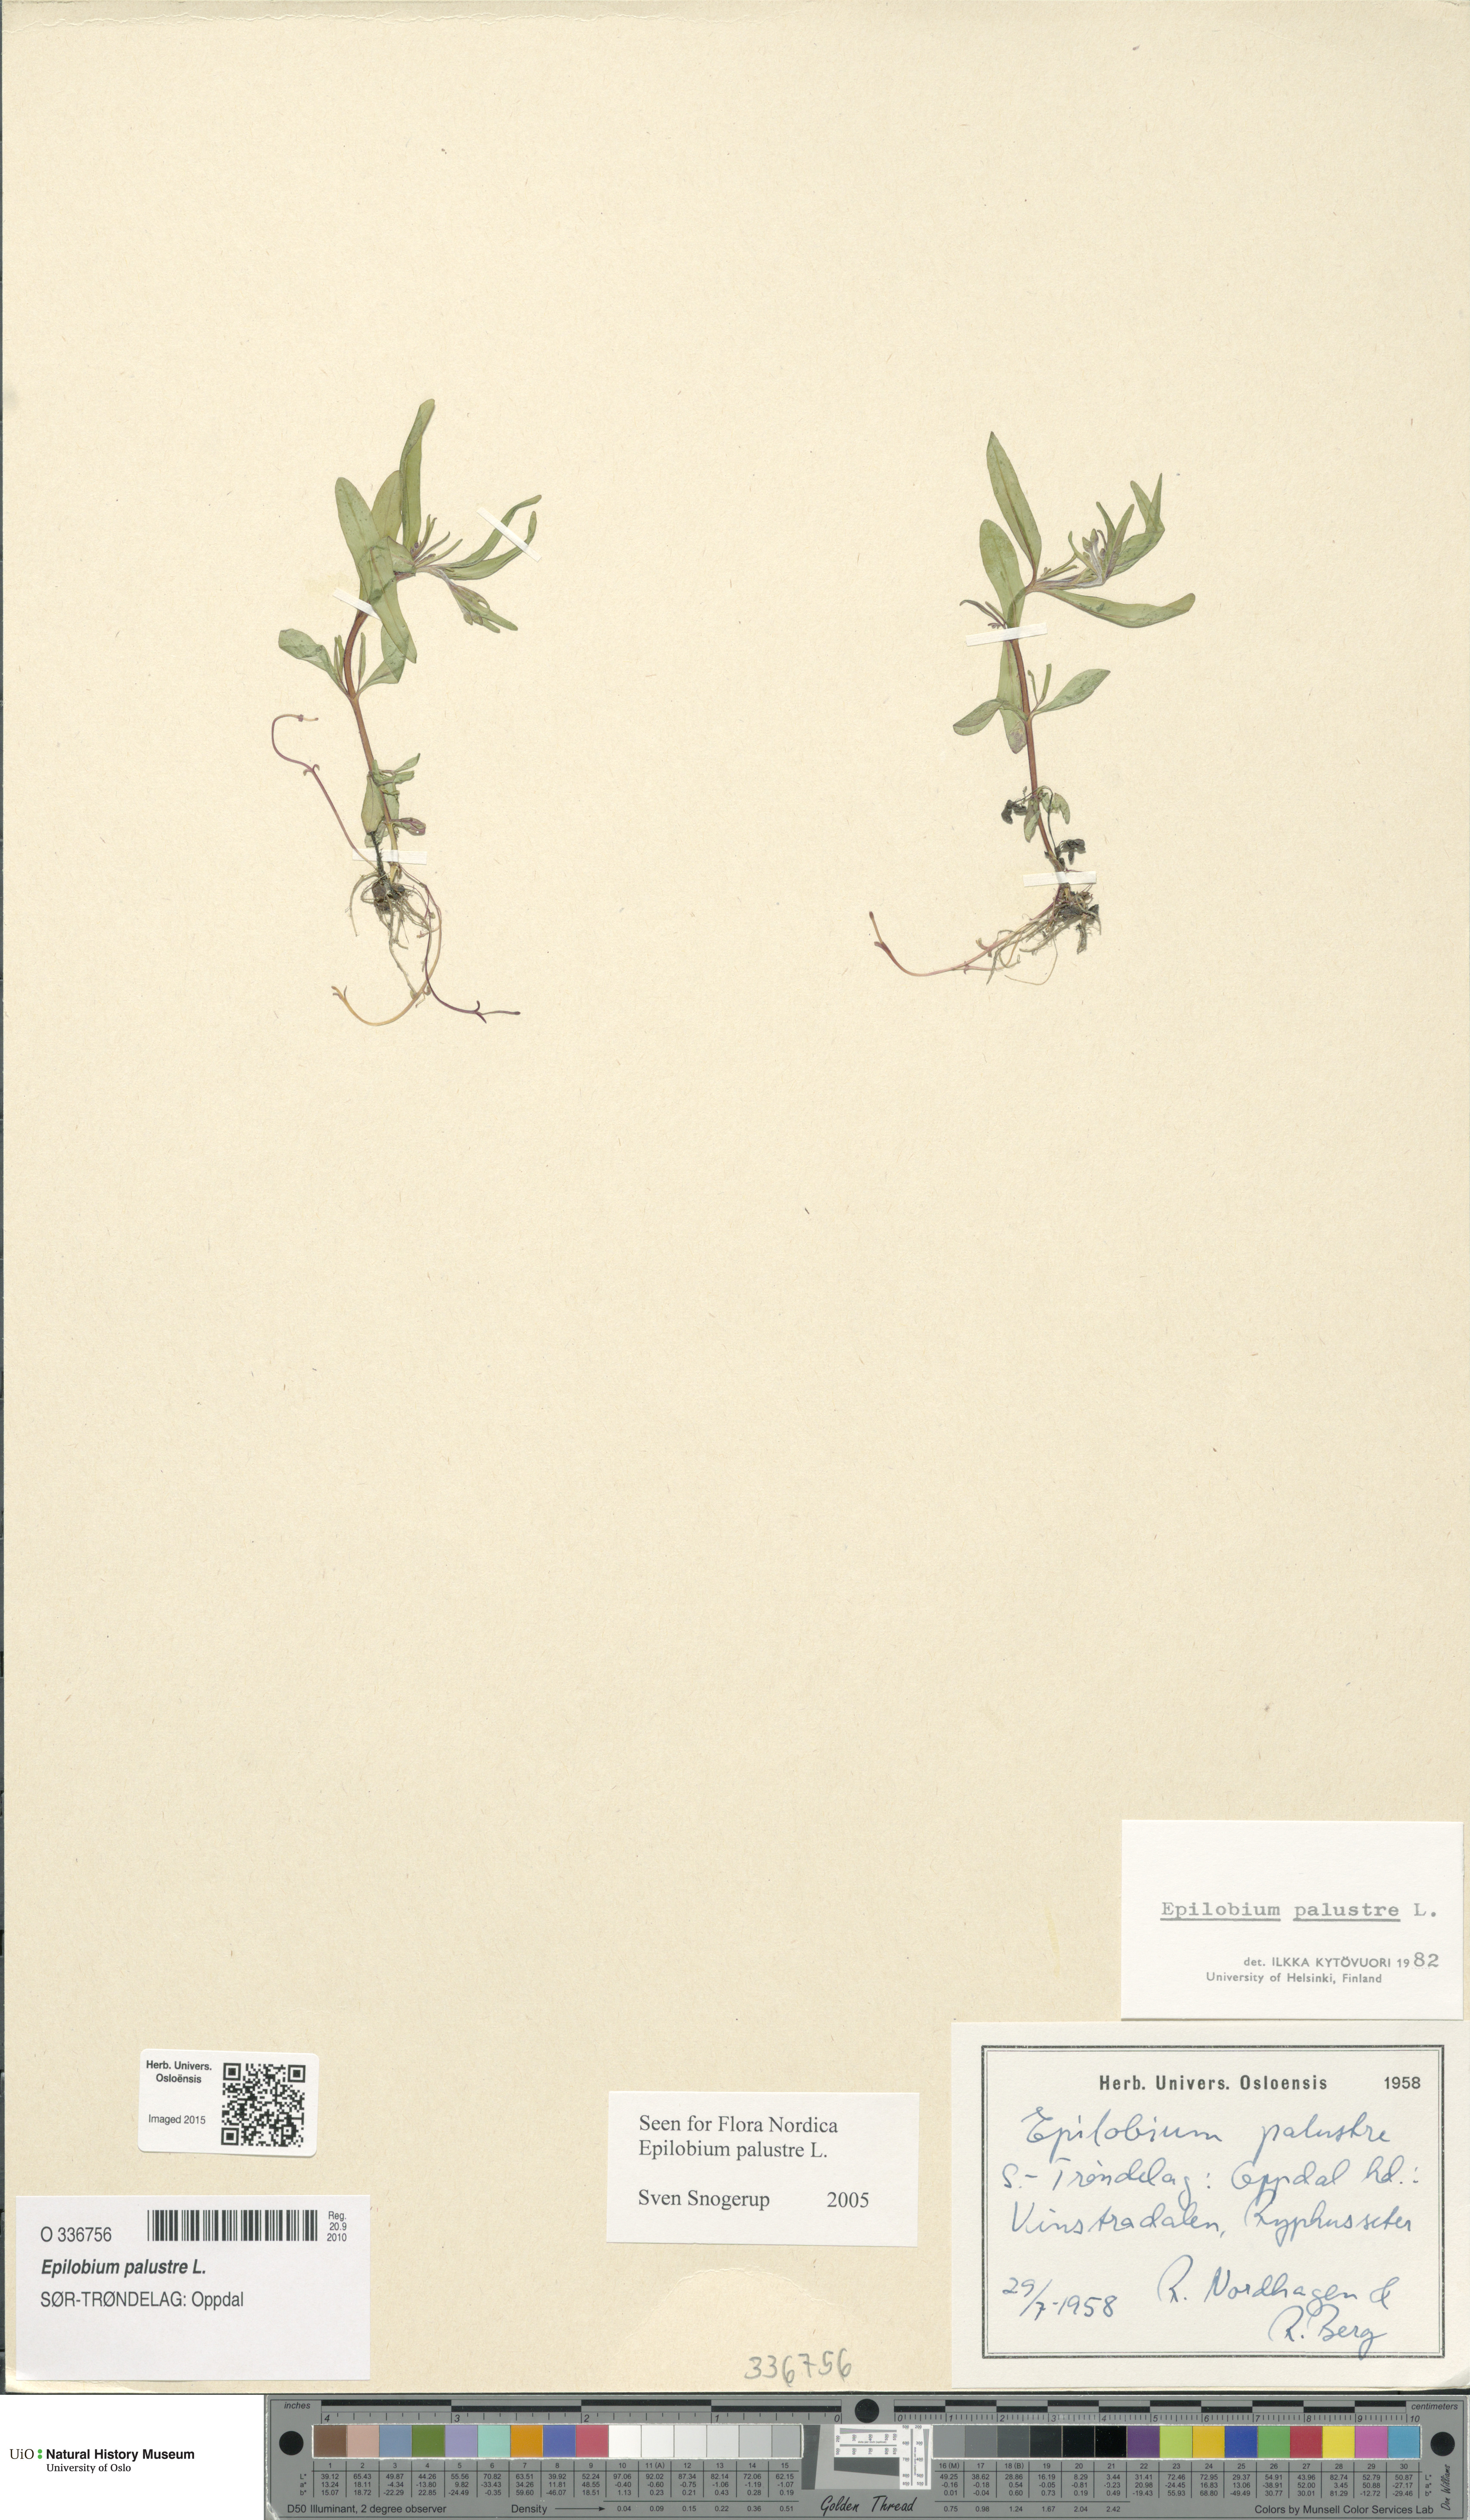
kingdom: Plantae
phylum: Tracheophyta
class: Magnoliopsida
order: Myrtales
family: Onagraceae
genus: Epilobium
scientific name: Epilobium palustre
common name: Marsh willowherb
